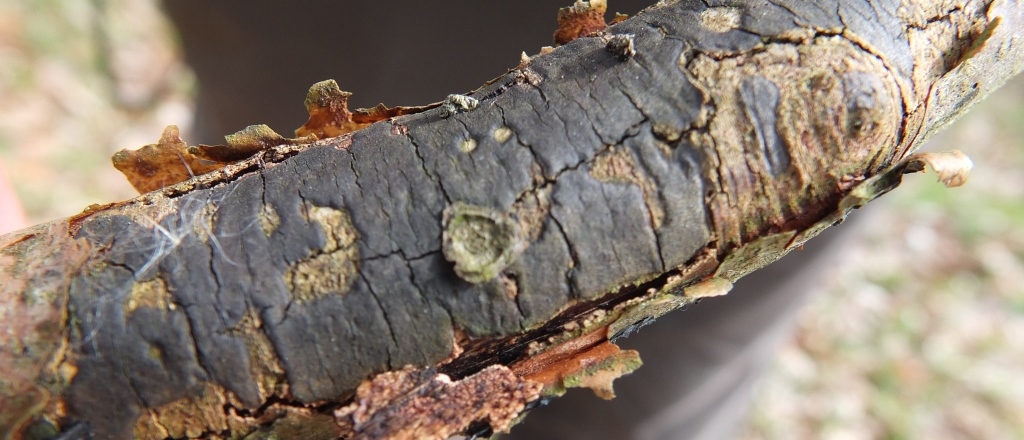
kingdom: Fungi
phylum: Ascomycota
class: Sordariomycetes
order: Xylariales
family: Diatrypaceae
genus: Diatrype
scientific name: Diatrype decorticata
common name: barksprænger-kulskorpe
